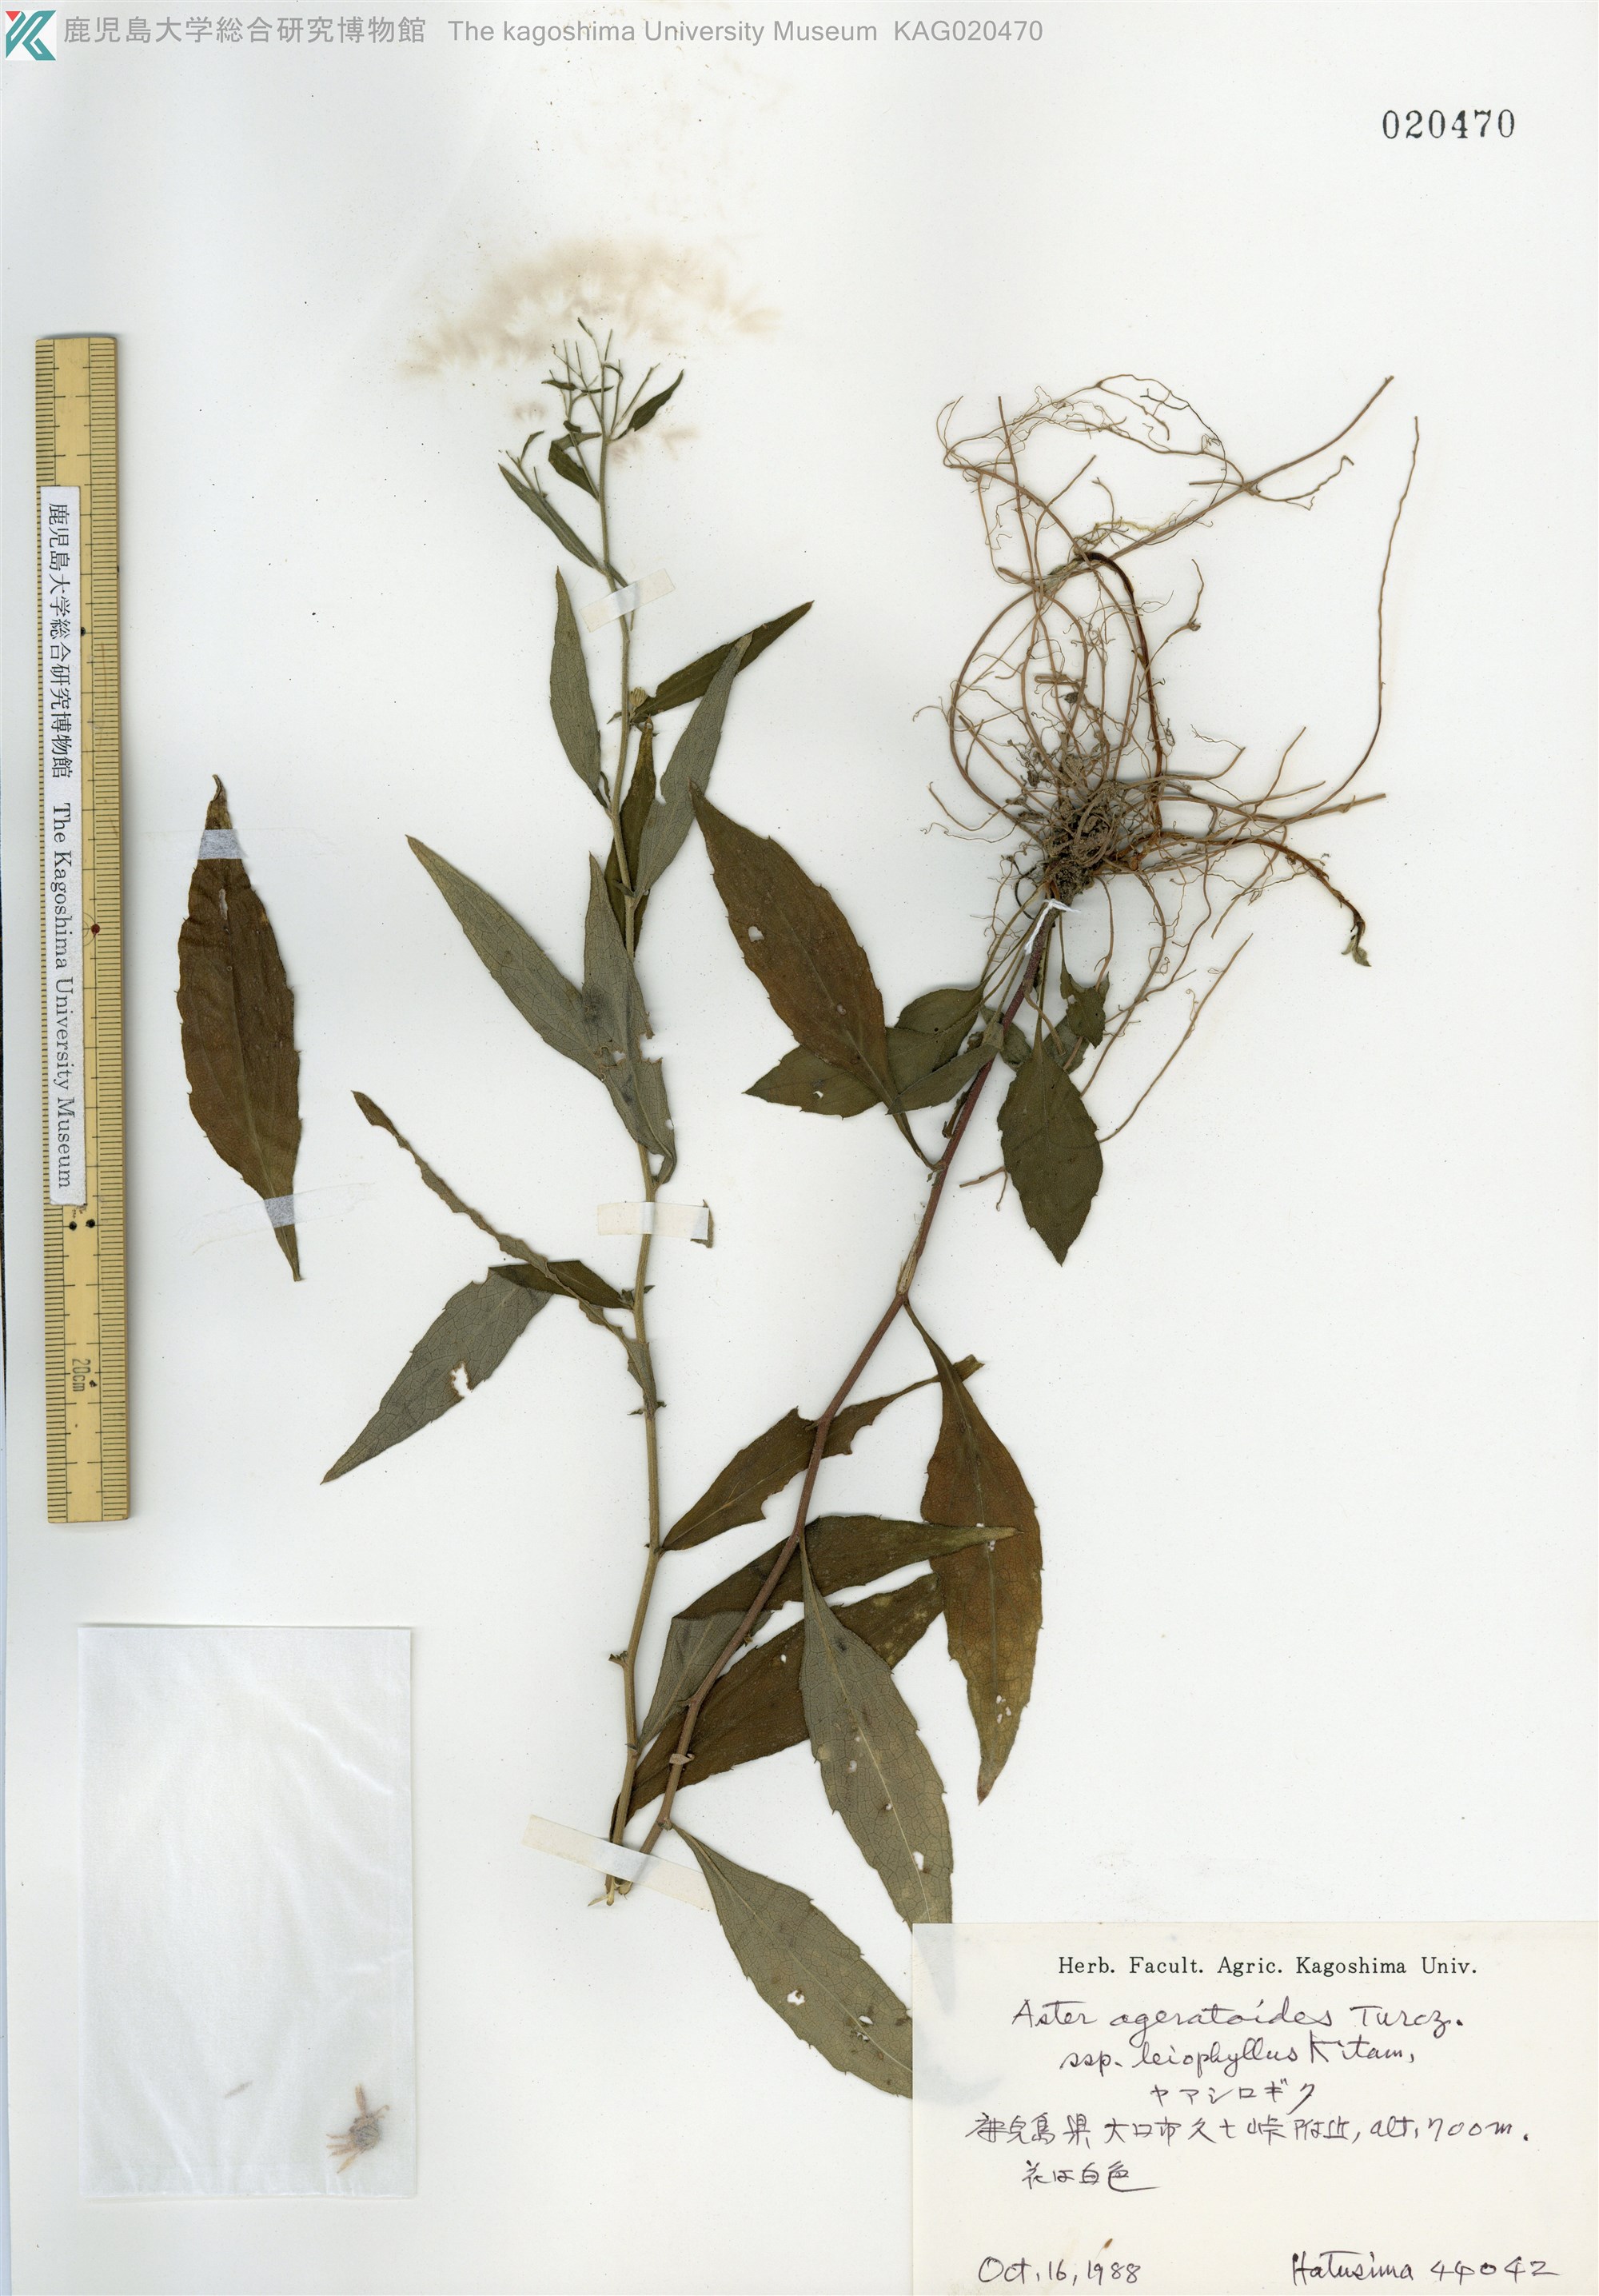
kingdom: Plantae
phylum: Tracheophyta
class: Magnoliopsida
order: Asterales
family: Asteraceae
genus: Aster
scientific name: Aster satsumensis
